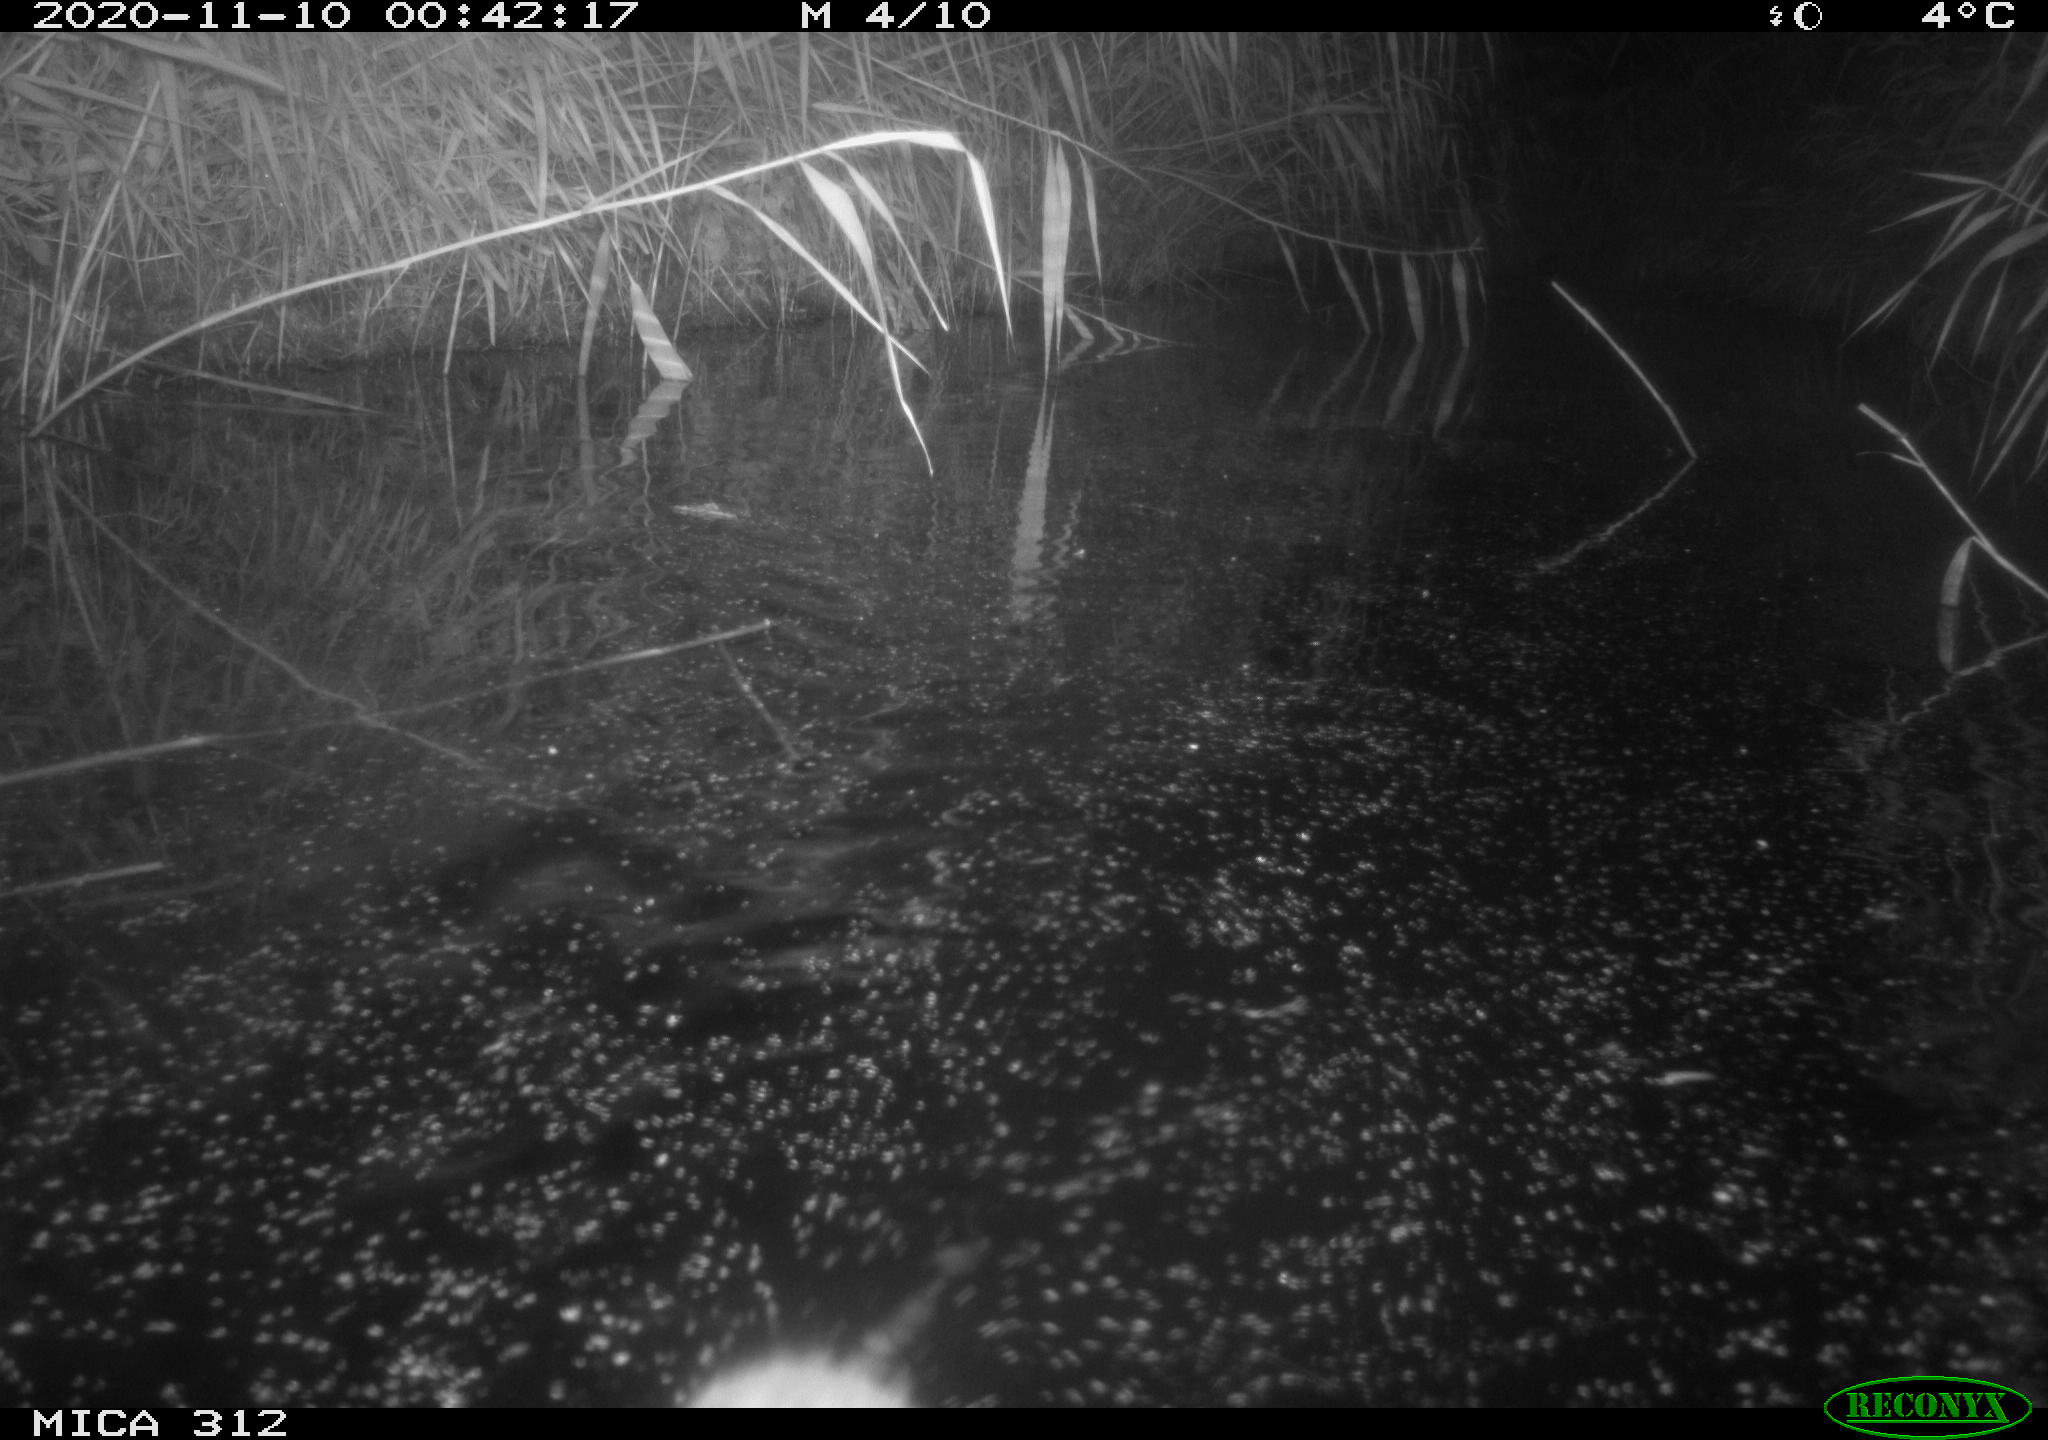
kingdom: Animalia
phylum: Chordata
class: Mammalia
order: Rodentia
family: Muridae
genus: Rattus
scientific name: Rattus norvegicus
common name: Brown rat
